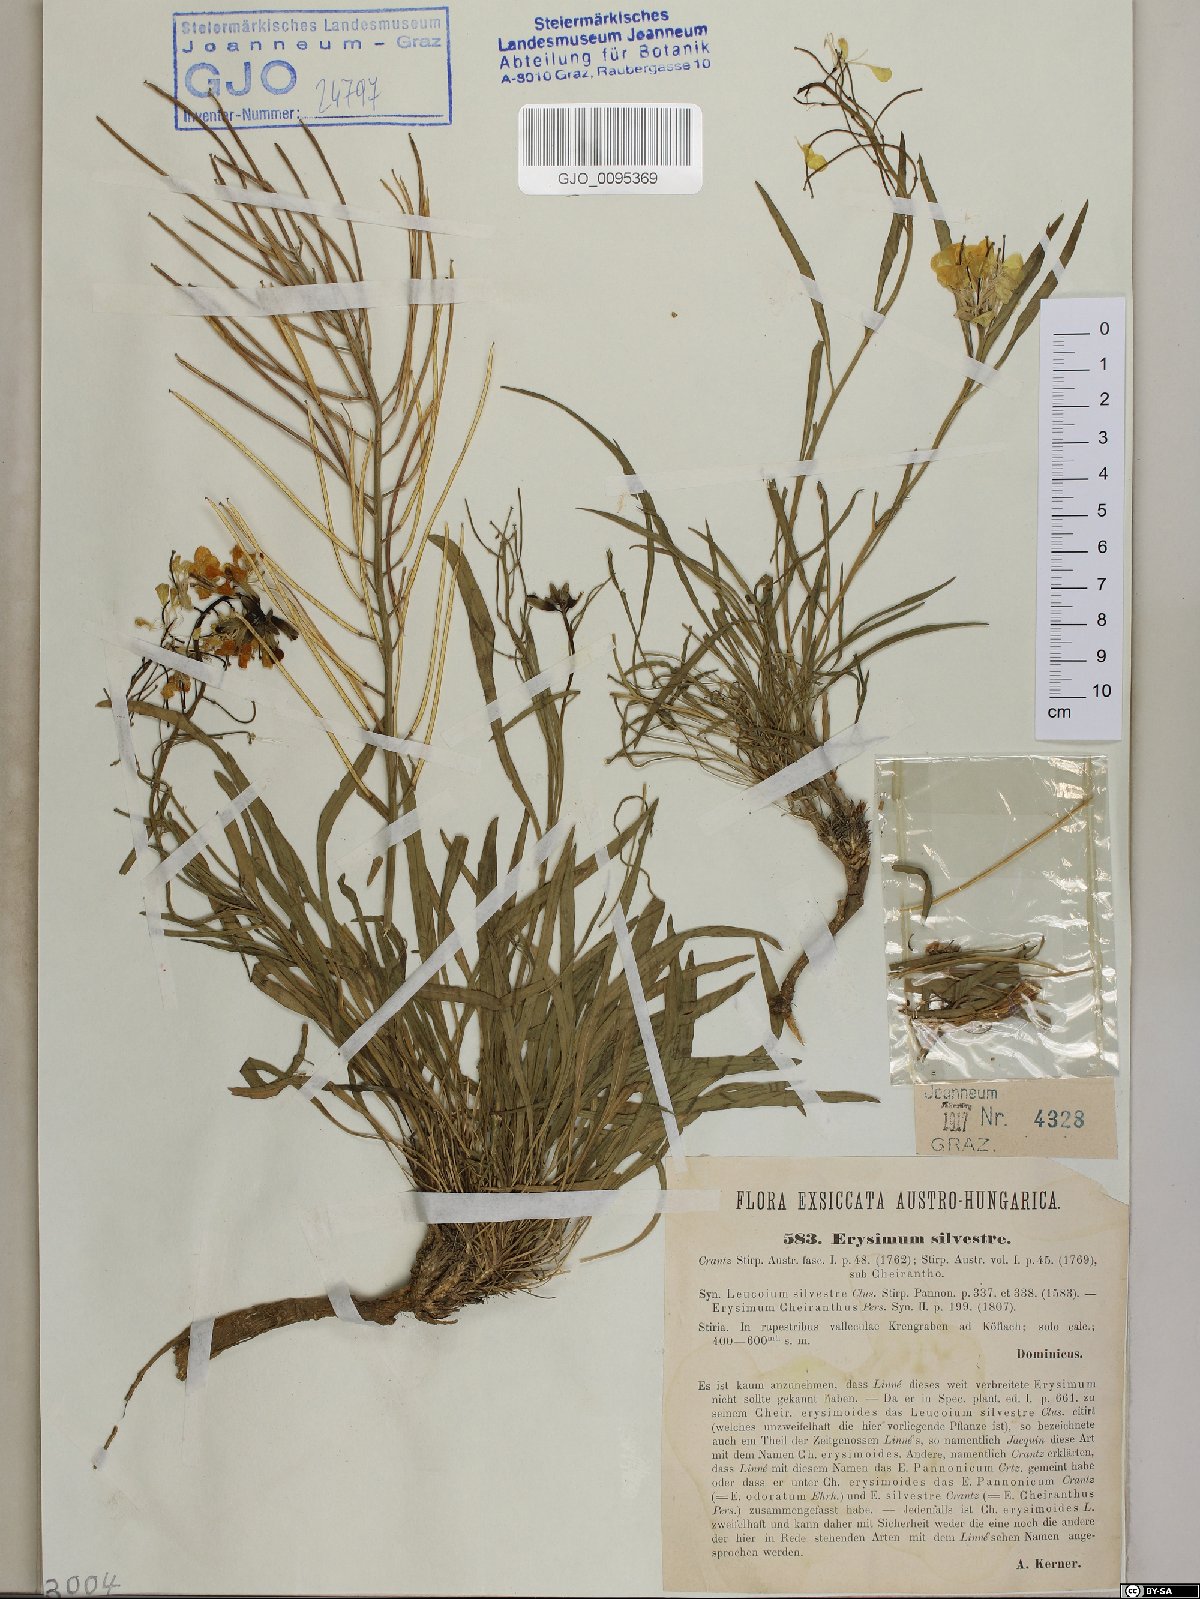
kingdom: Plantae
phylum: Tracheophyta
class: Magnoliopsida
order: Brassicales
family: Brassicaceae
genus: Erysimum
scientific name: Erysimum sylvestre
